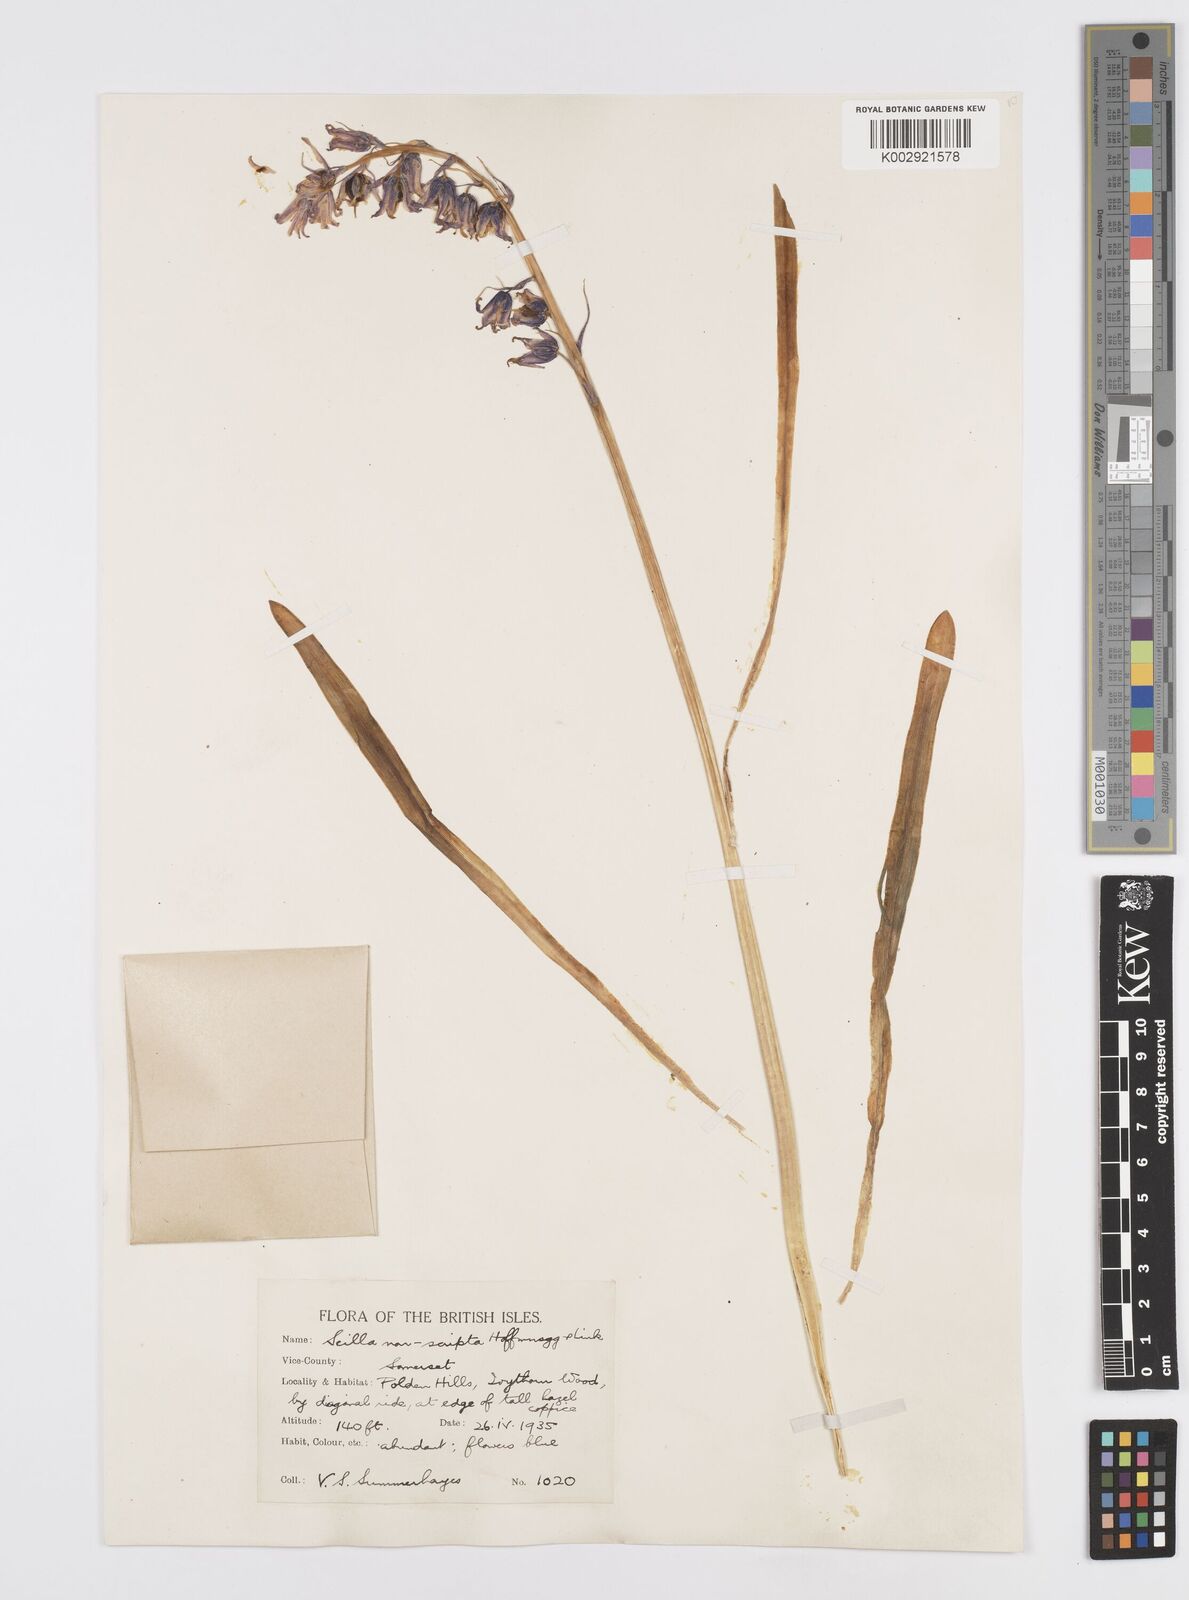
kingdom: Plantae
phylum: Tracheophyta
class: Liliopsida
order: Asparagales
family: Asparagaceae
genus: Hyacinthoides
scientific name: Hyacinthoides non-scripta
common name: Bluebell
